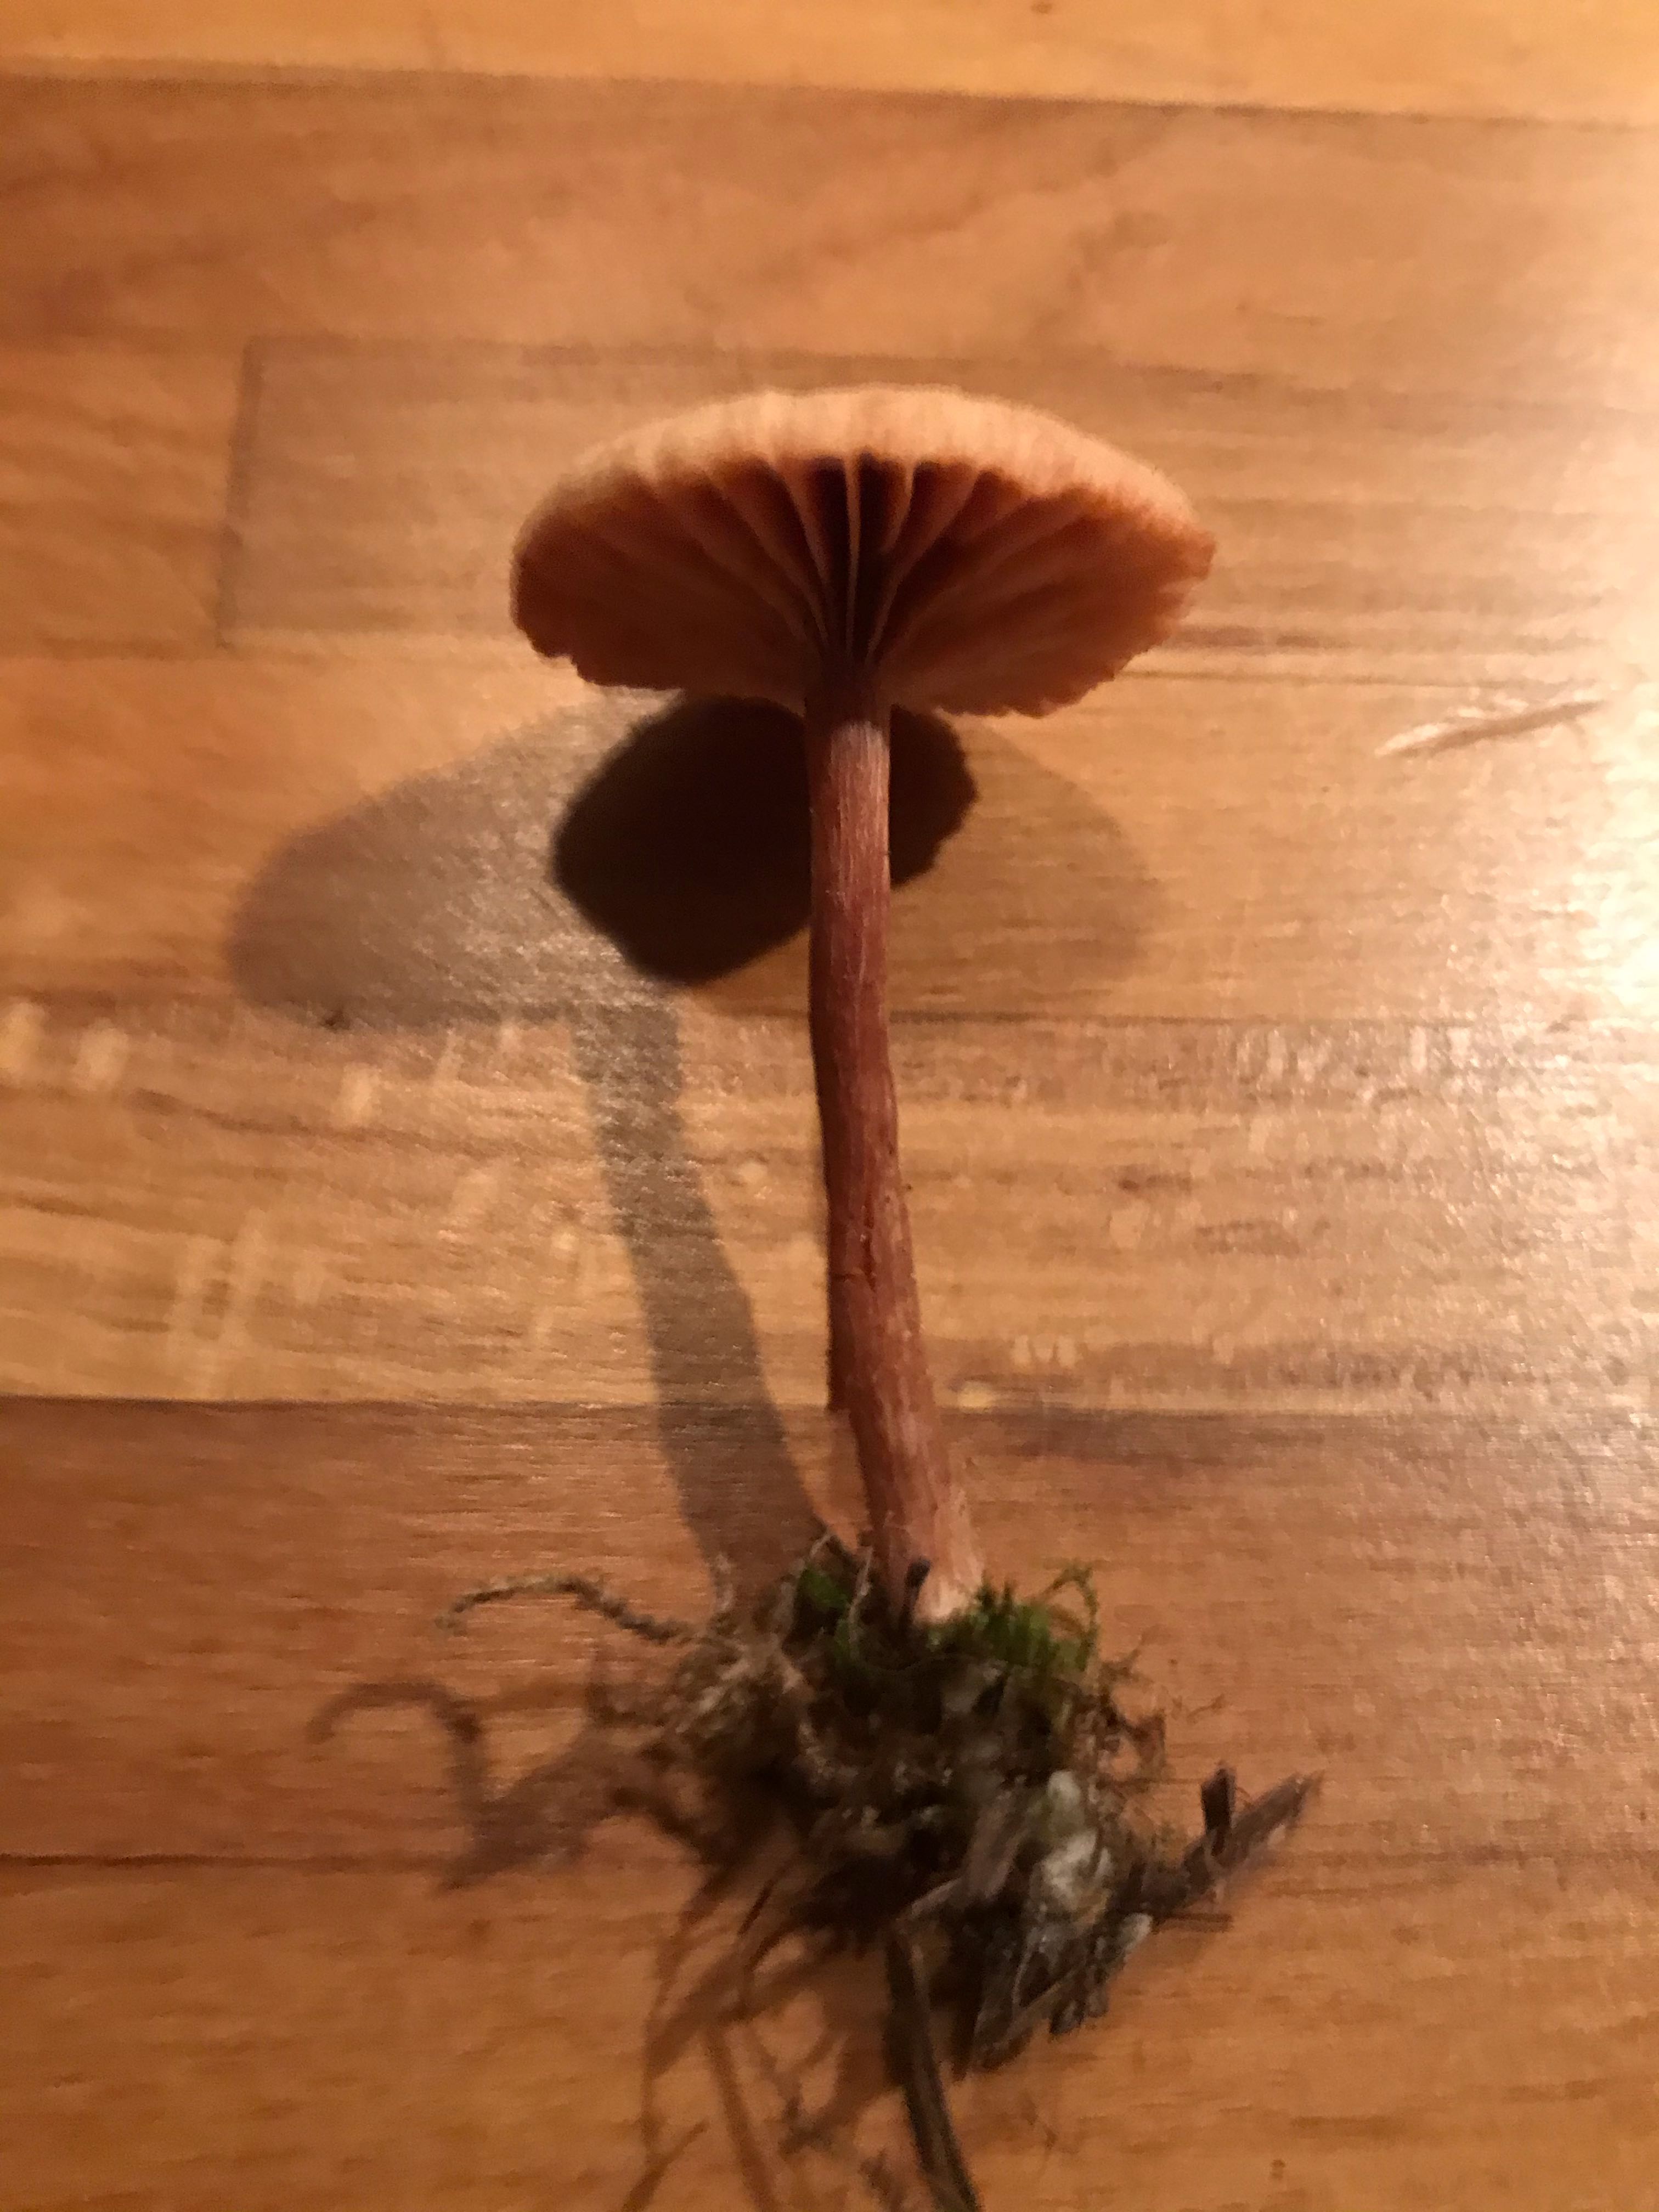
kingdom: Fungi
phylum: Basidiomycota
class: Agaricomycetes
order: Agaricales
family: Hydnangiaceae
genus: Laccaria
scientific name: Laccaria proxima
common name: stor ametysthat
